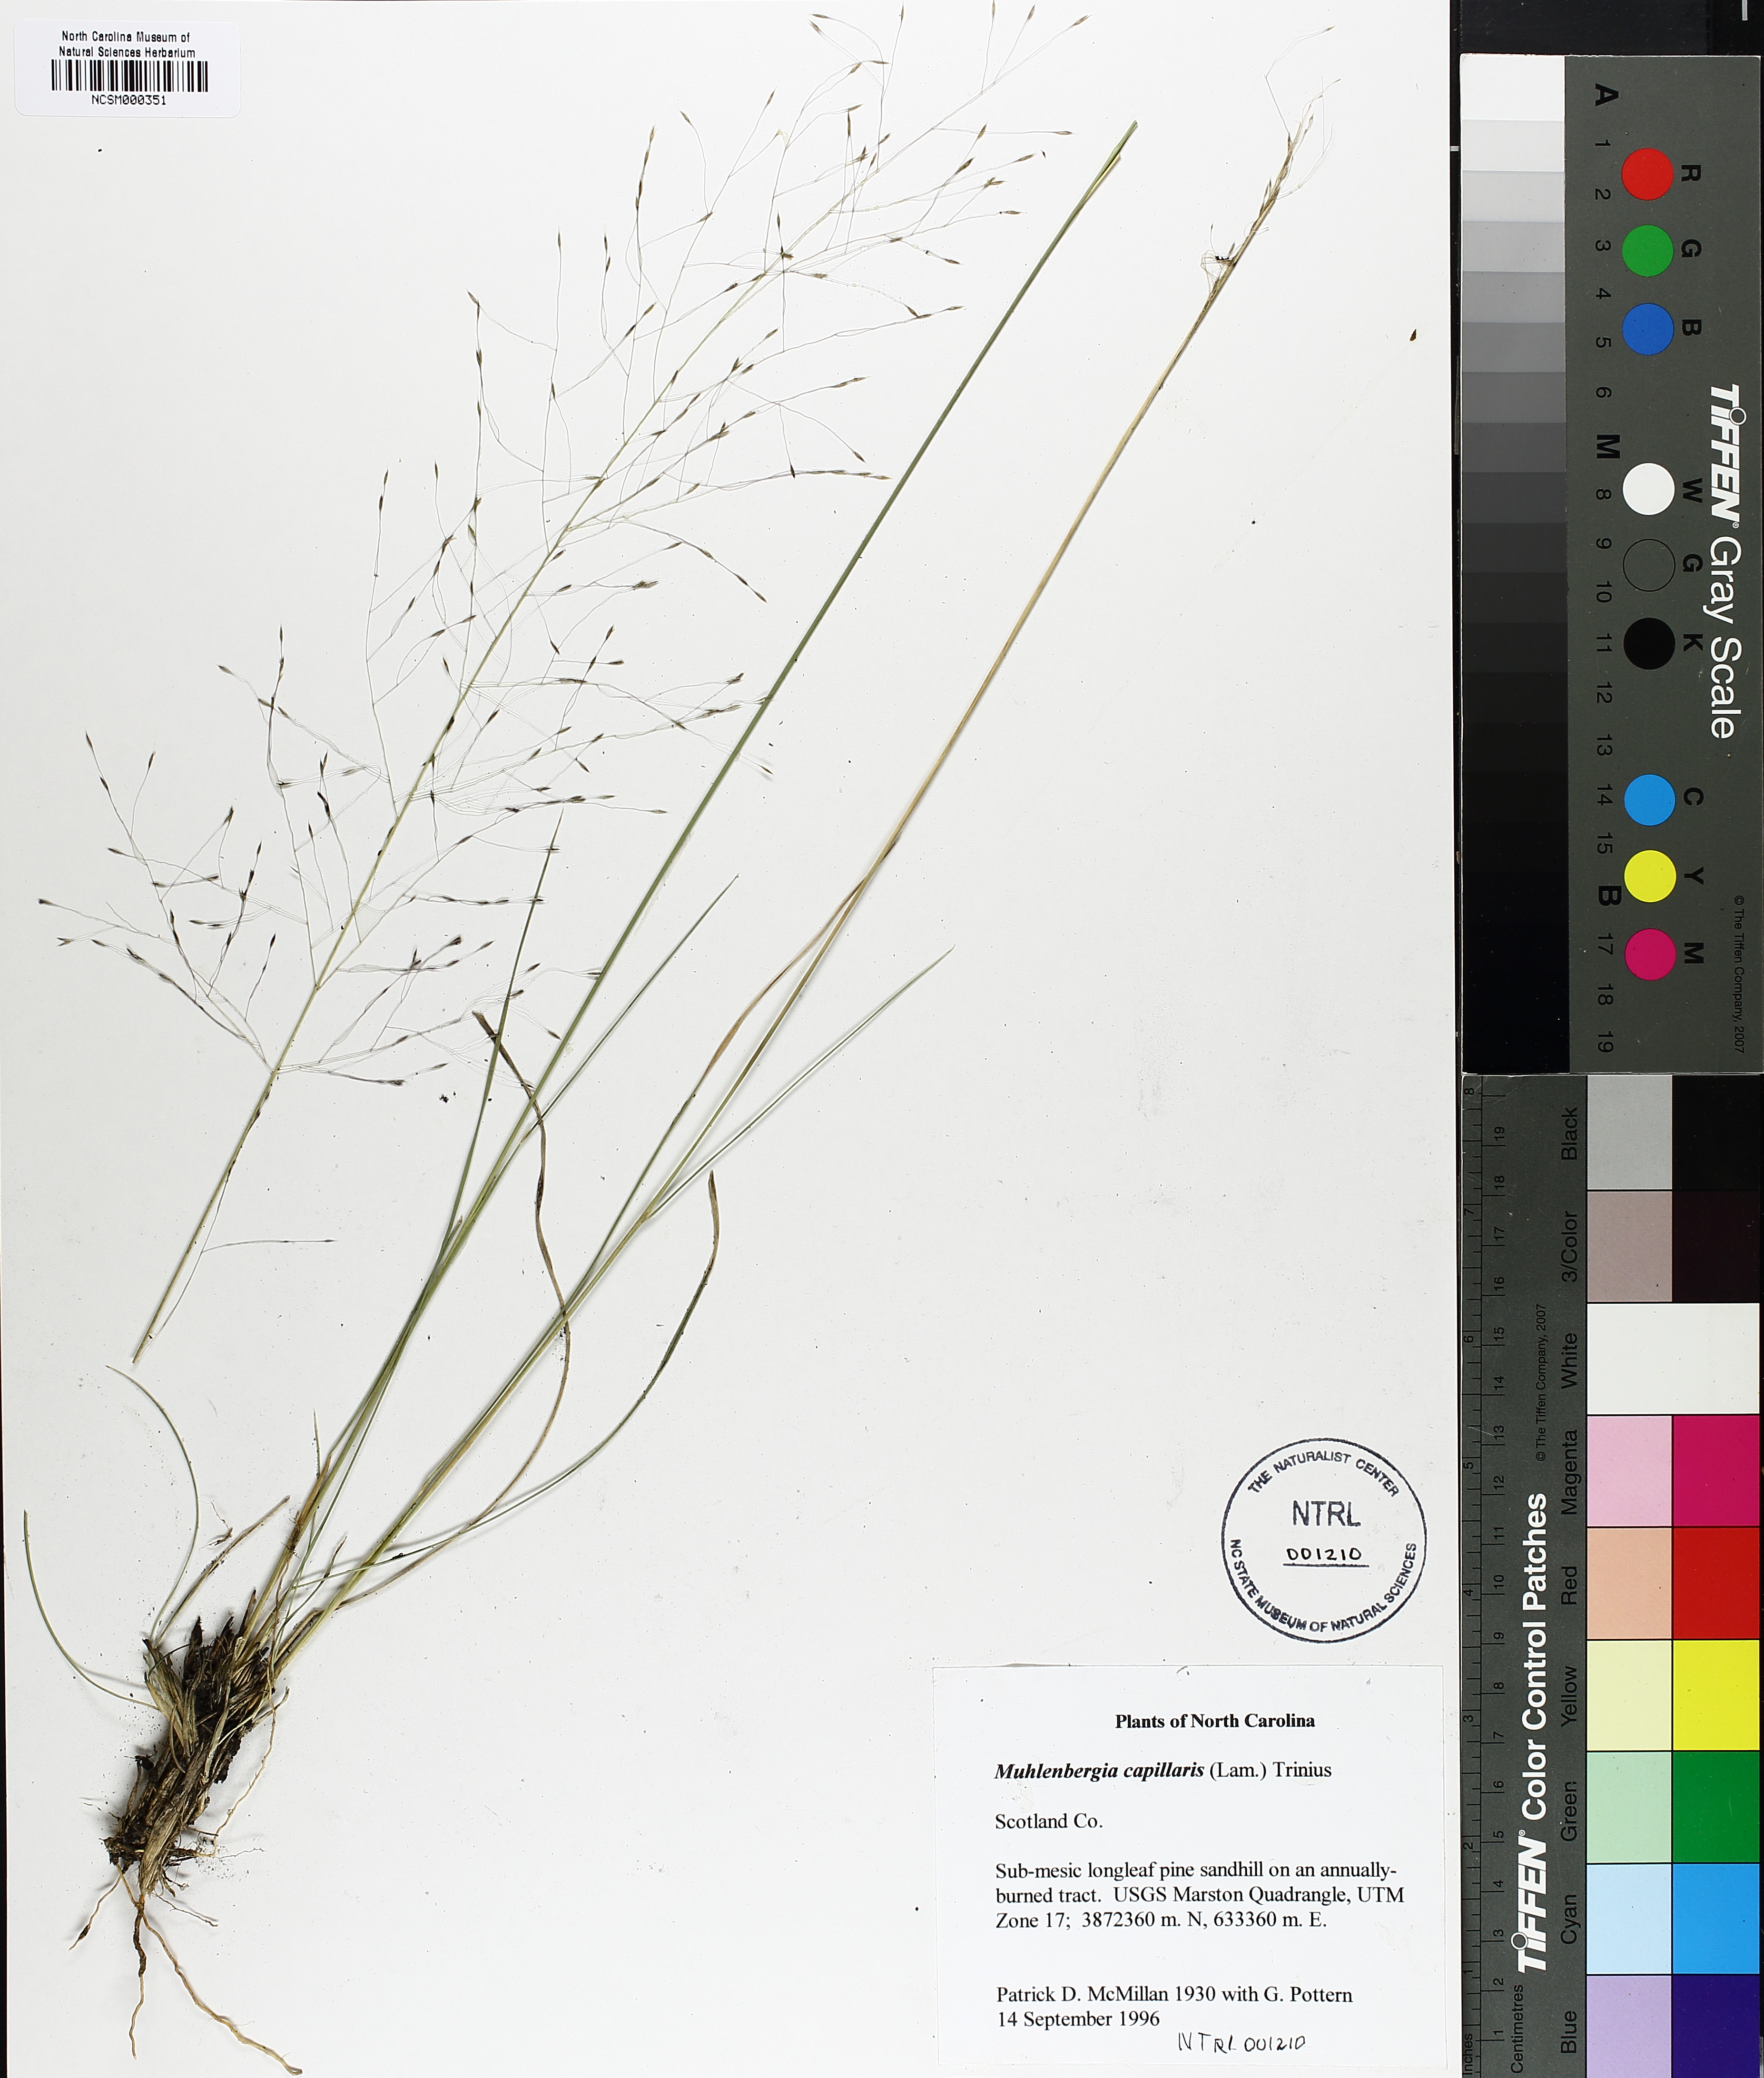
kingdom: Plantae
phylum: Tracheophyta
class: Liliopsida
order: Poales
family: Poaceae
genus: Muhlenbergia
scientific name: Muhlenbergia capillaris
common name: Purple grass
